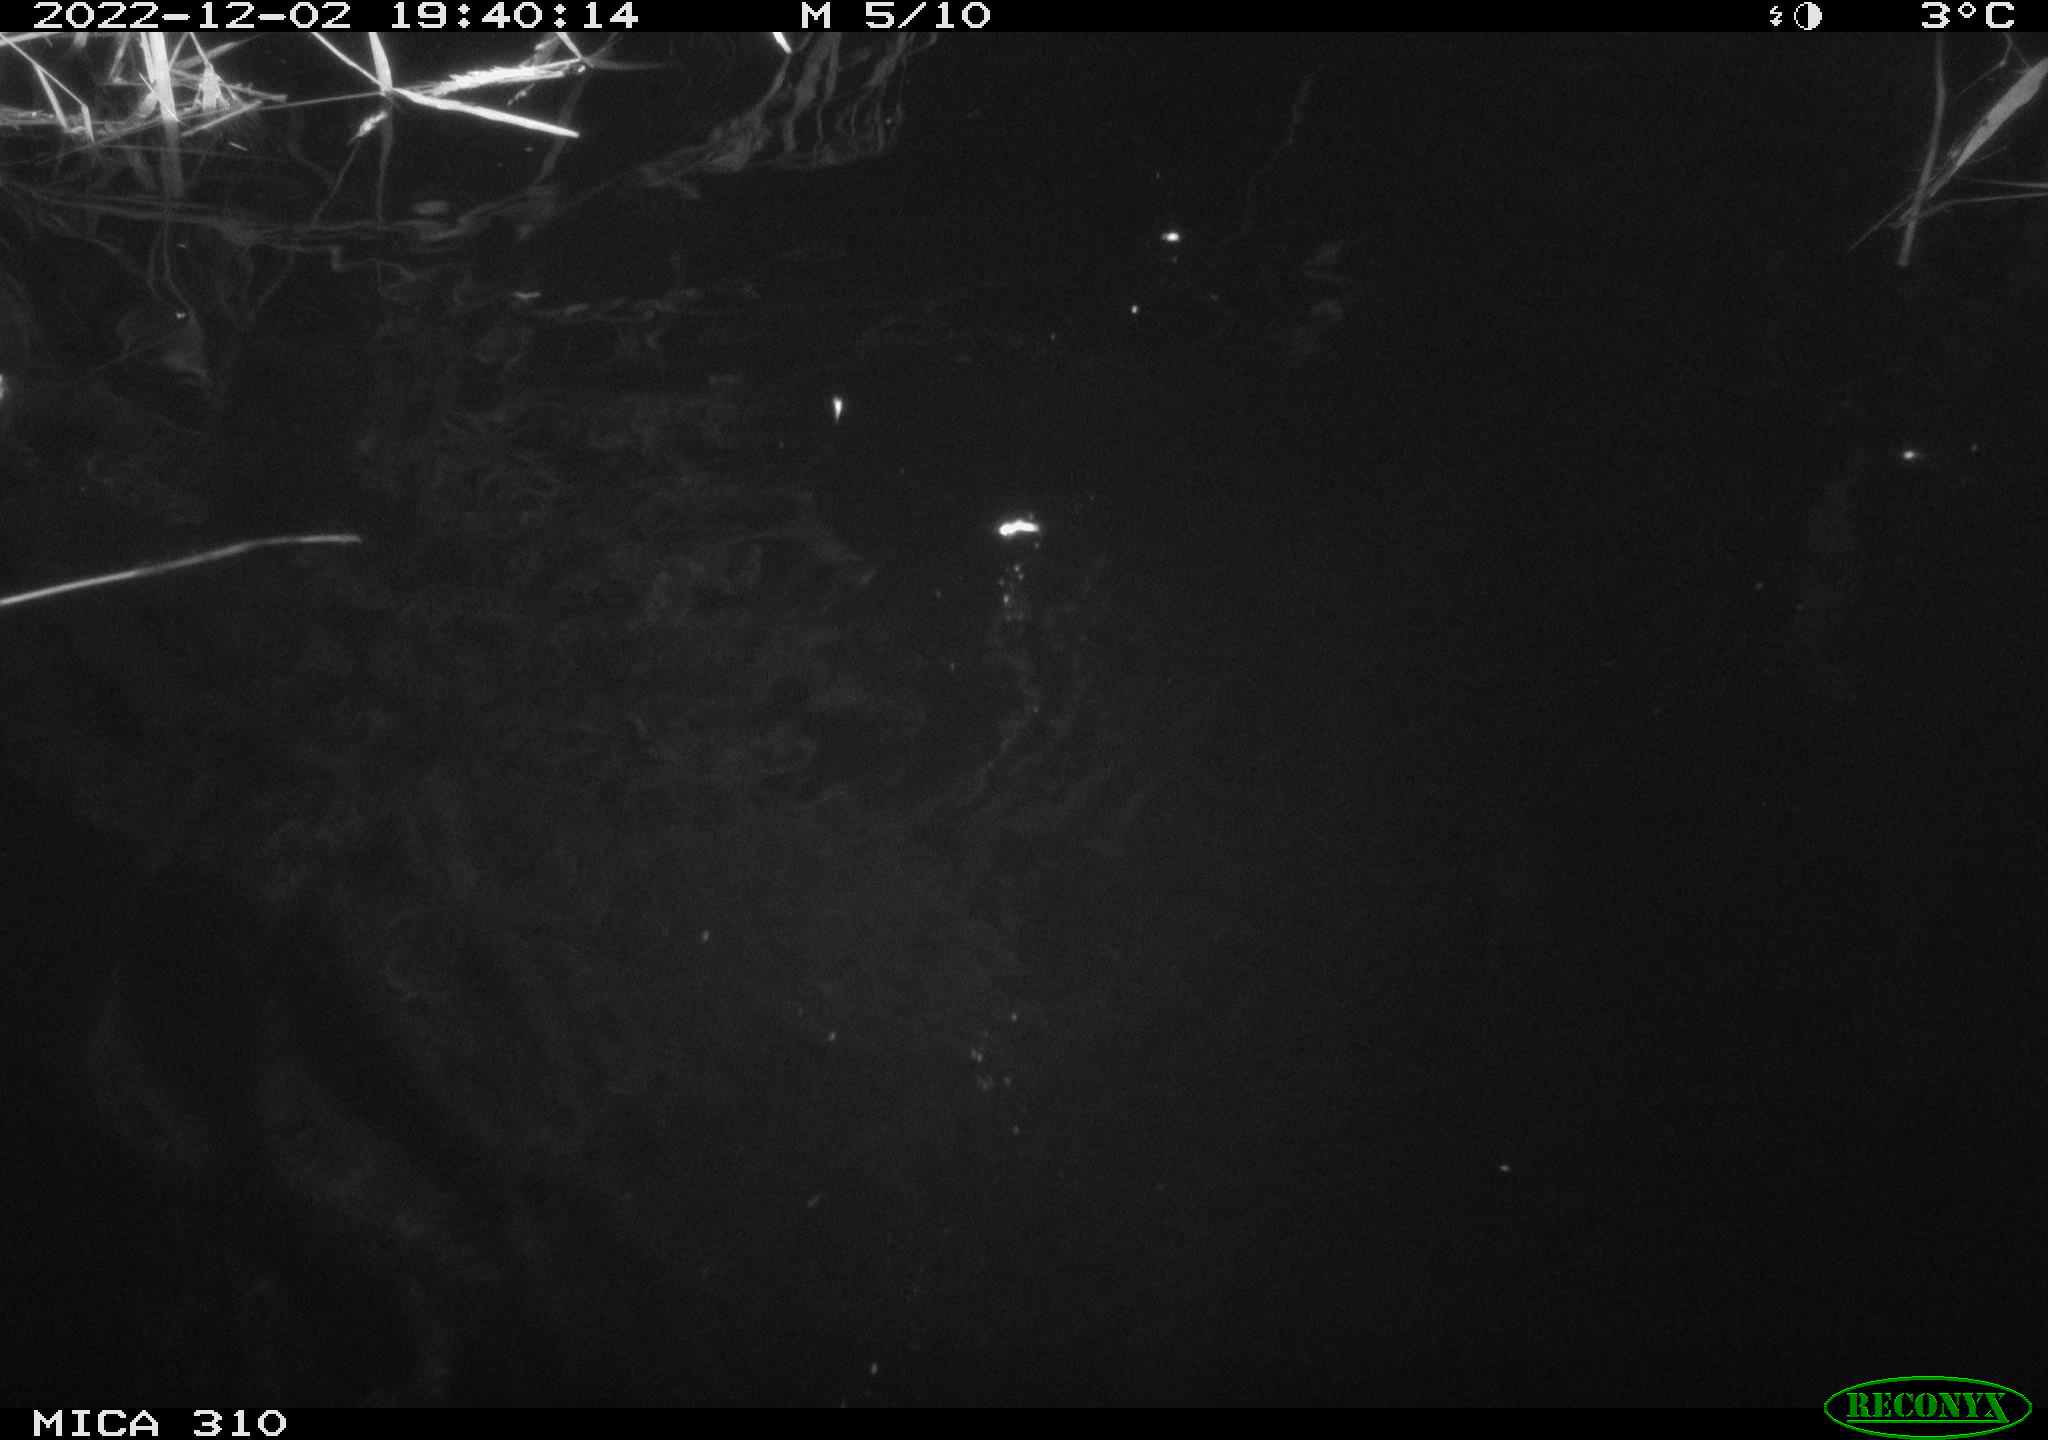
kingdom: Animalia
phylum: Chordata
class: Aves
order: Anseriformes
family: Anatidae
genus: Anas
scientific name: Anas
